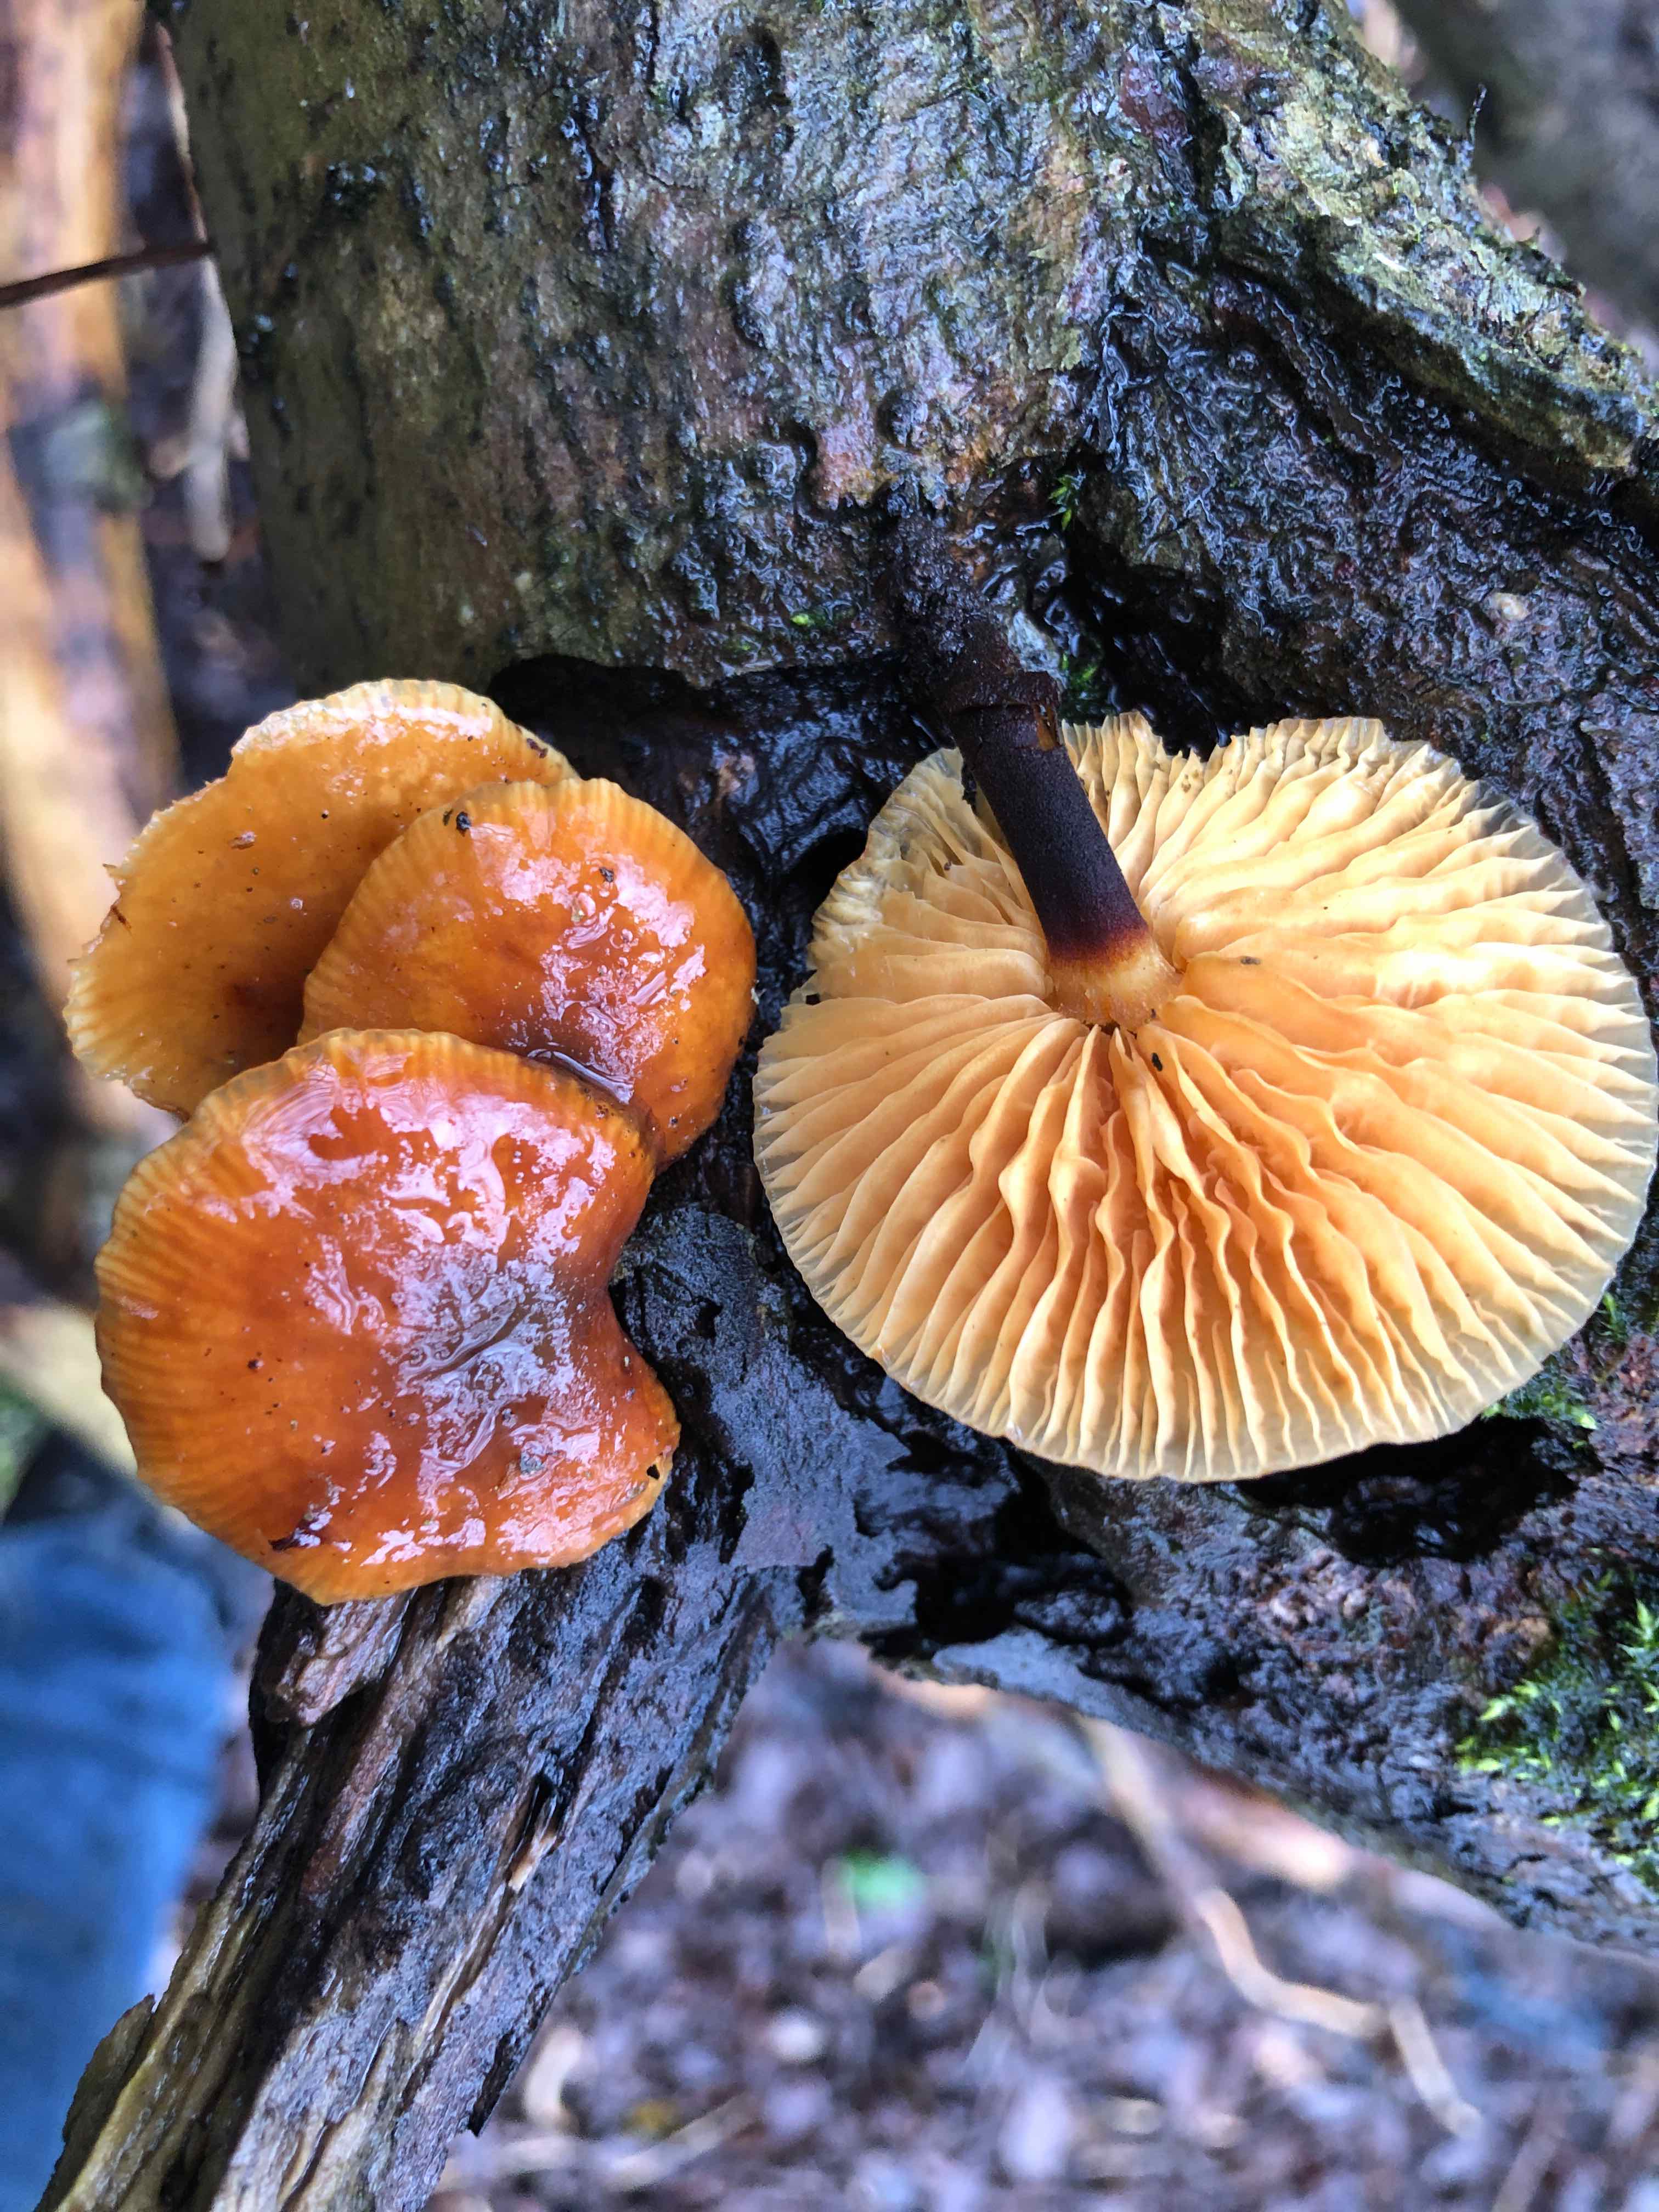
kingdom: Fungi
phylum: Basidiomycota
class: Agaricomycetes
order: Agaricales
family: Physalacriaceae
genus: Flammulina
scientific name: Flammulina elastica
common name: pile-fløjlsfod
